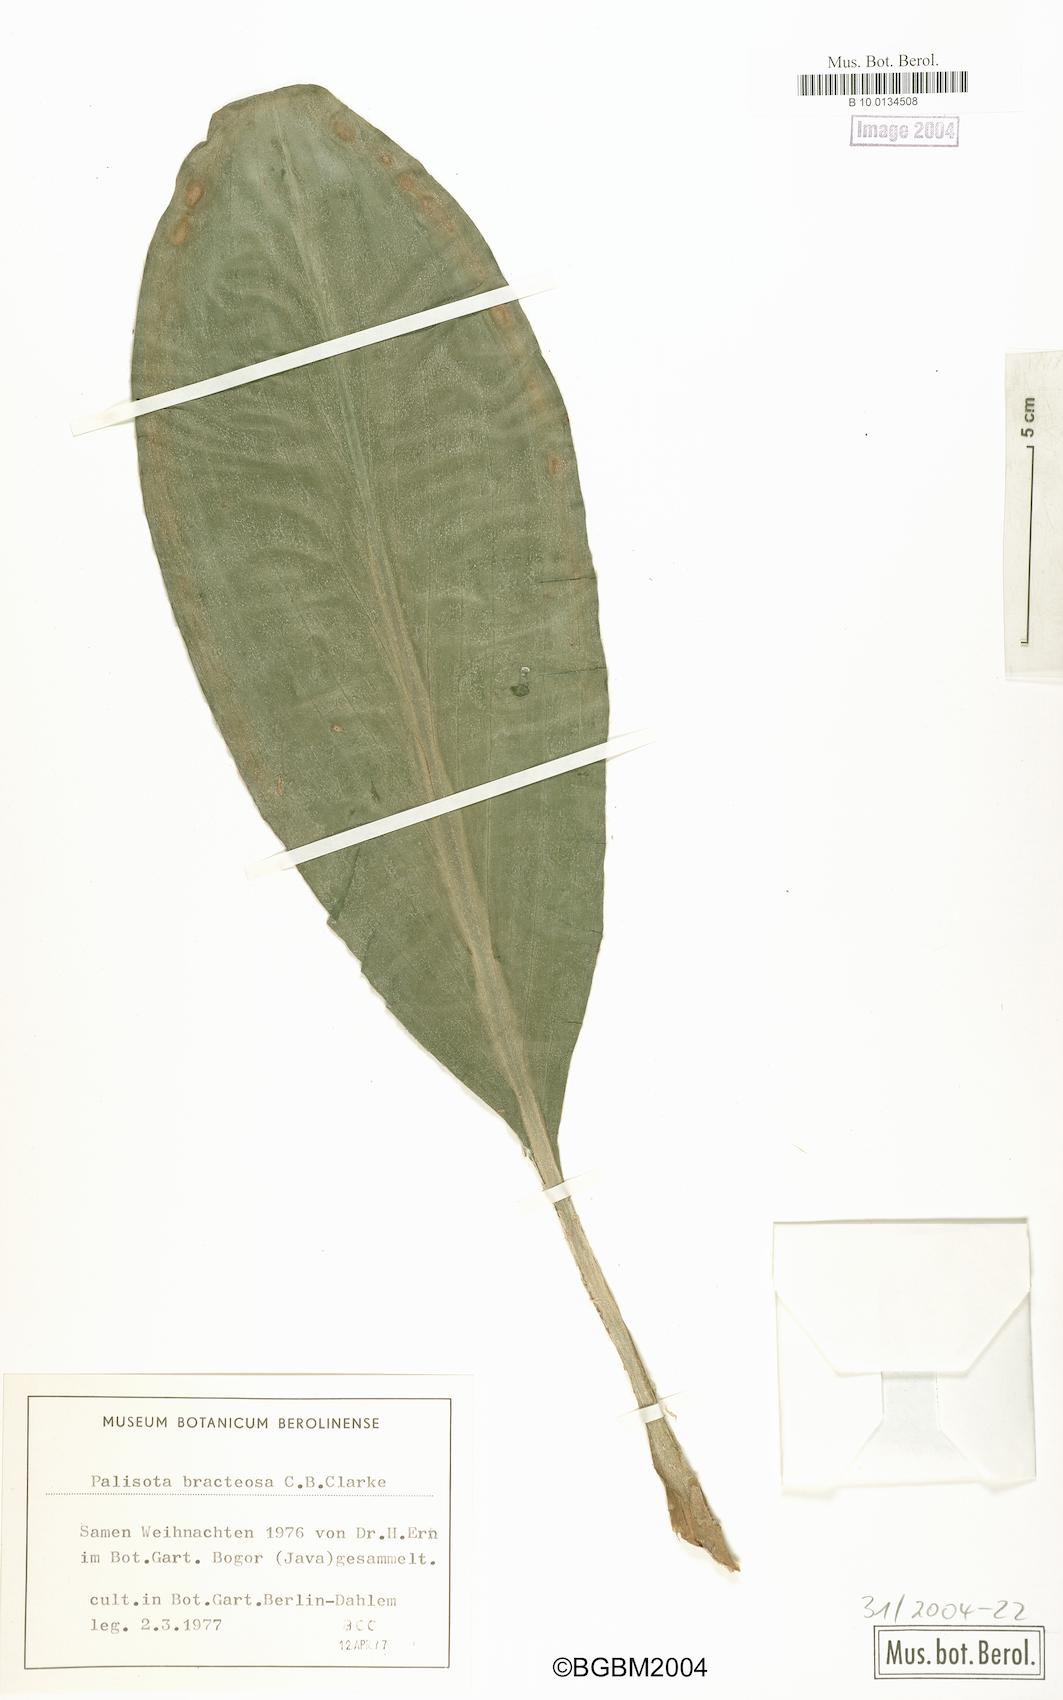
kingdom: Plantae
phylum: Tracheophyta
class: Liliopsida
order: Commelinales
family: Commelinaceae
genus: Palisota
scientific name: Palisota bracteosa
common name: Palisota
